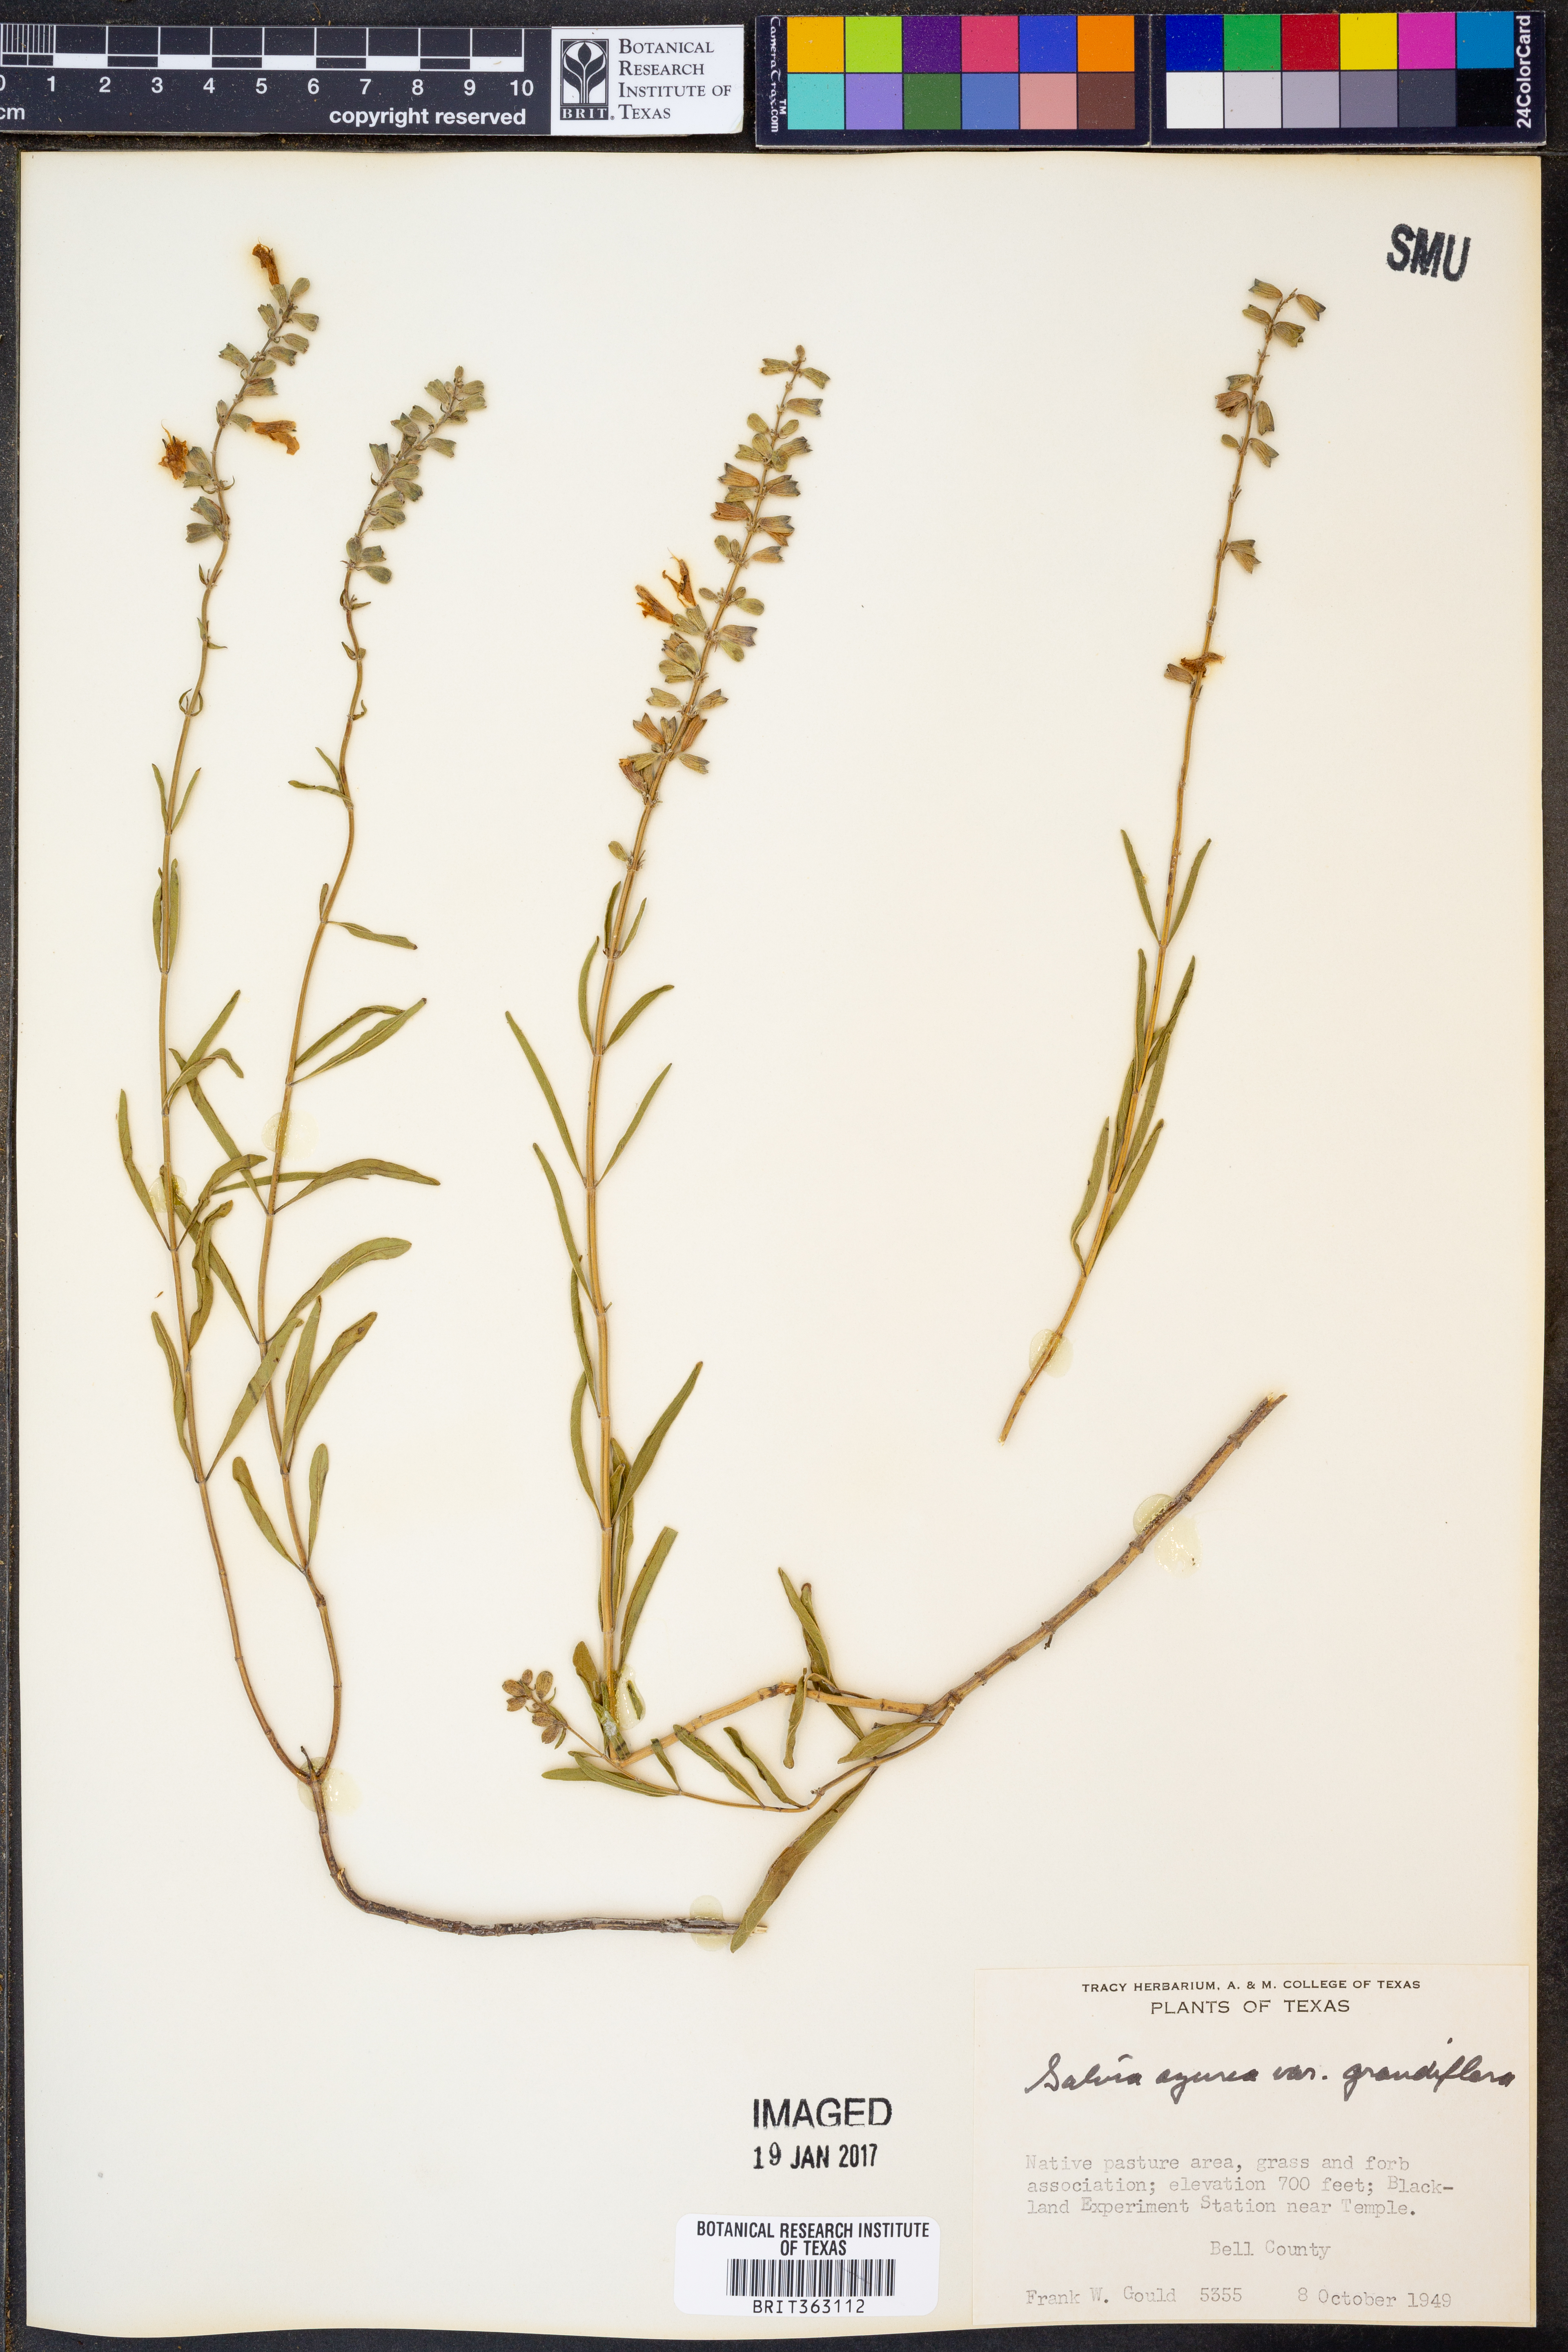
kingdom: Plantae
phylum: Tracheophyta
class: Magnoliopsida
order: Lamiales
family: Lamiaceae
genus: Salvia
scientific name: Salvia azurea
